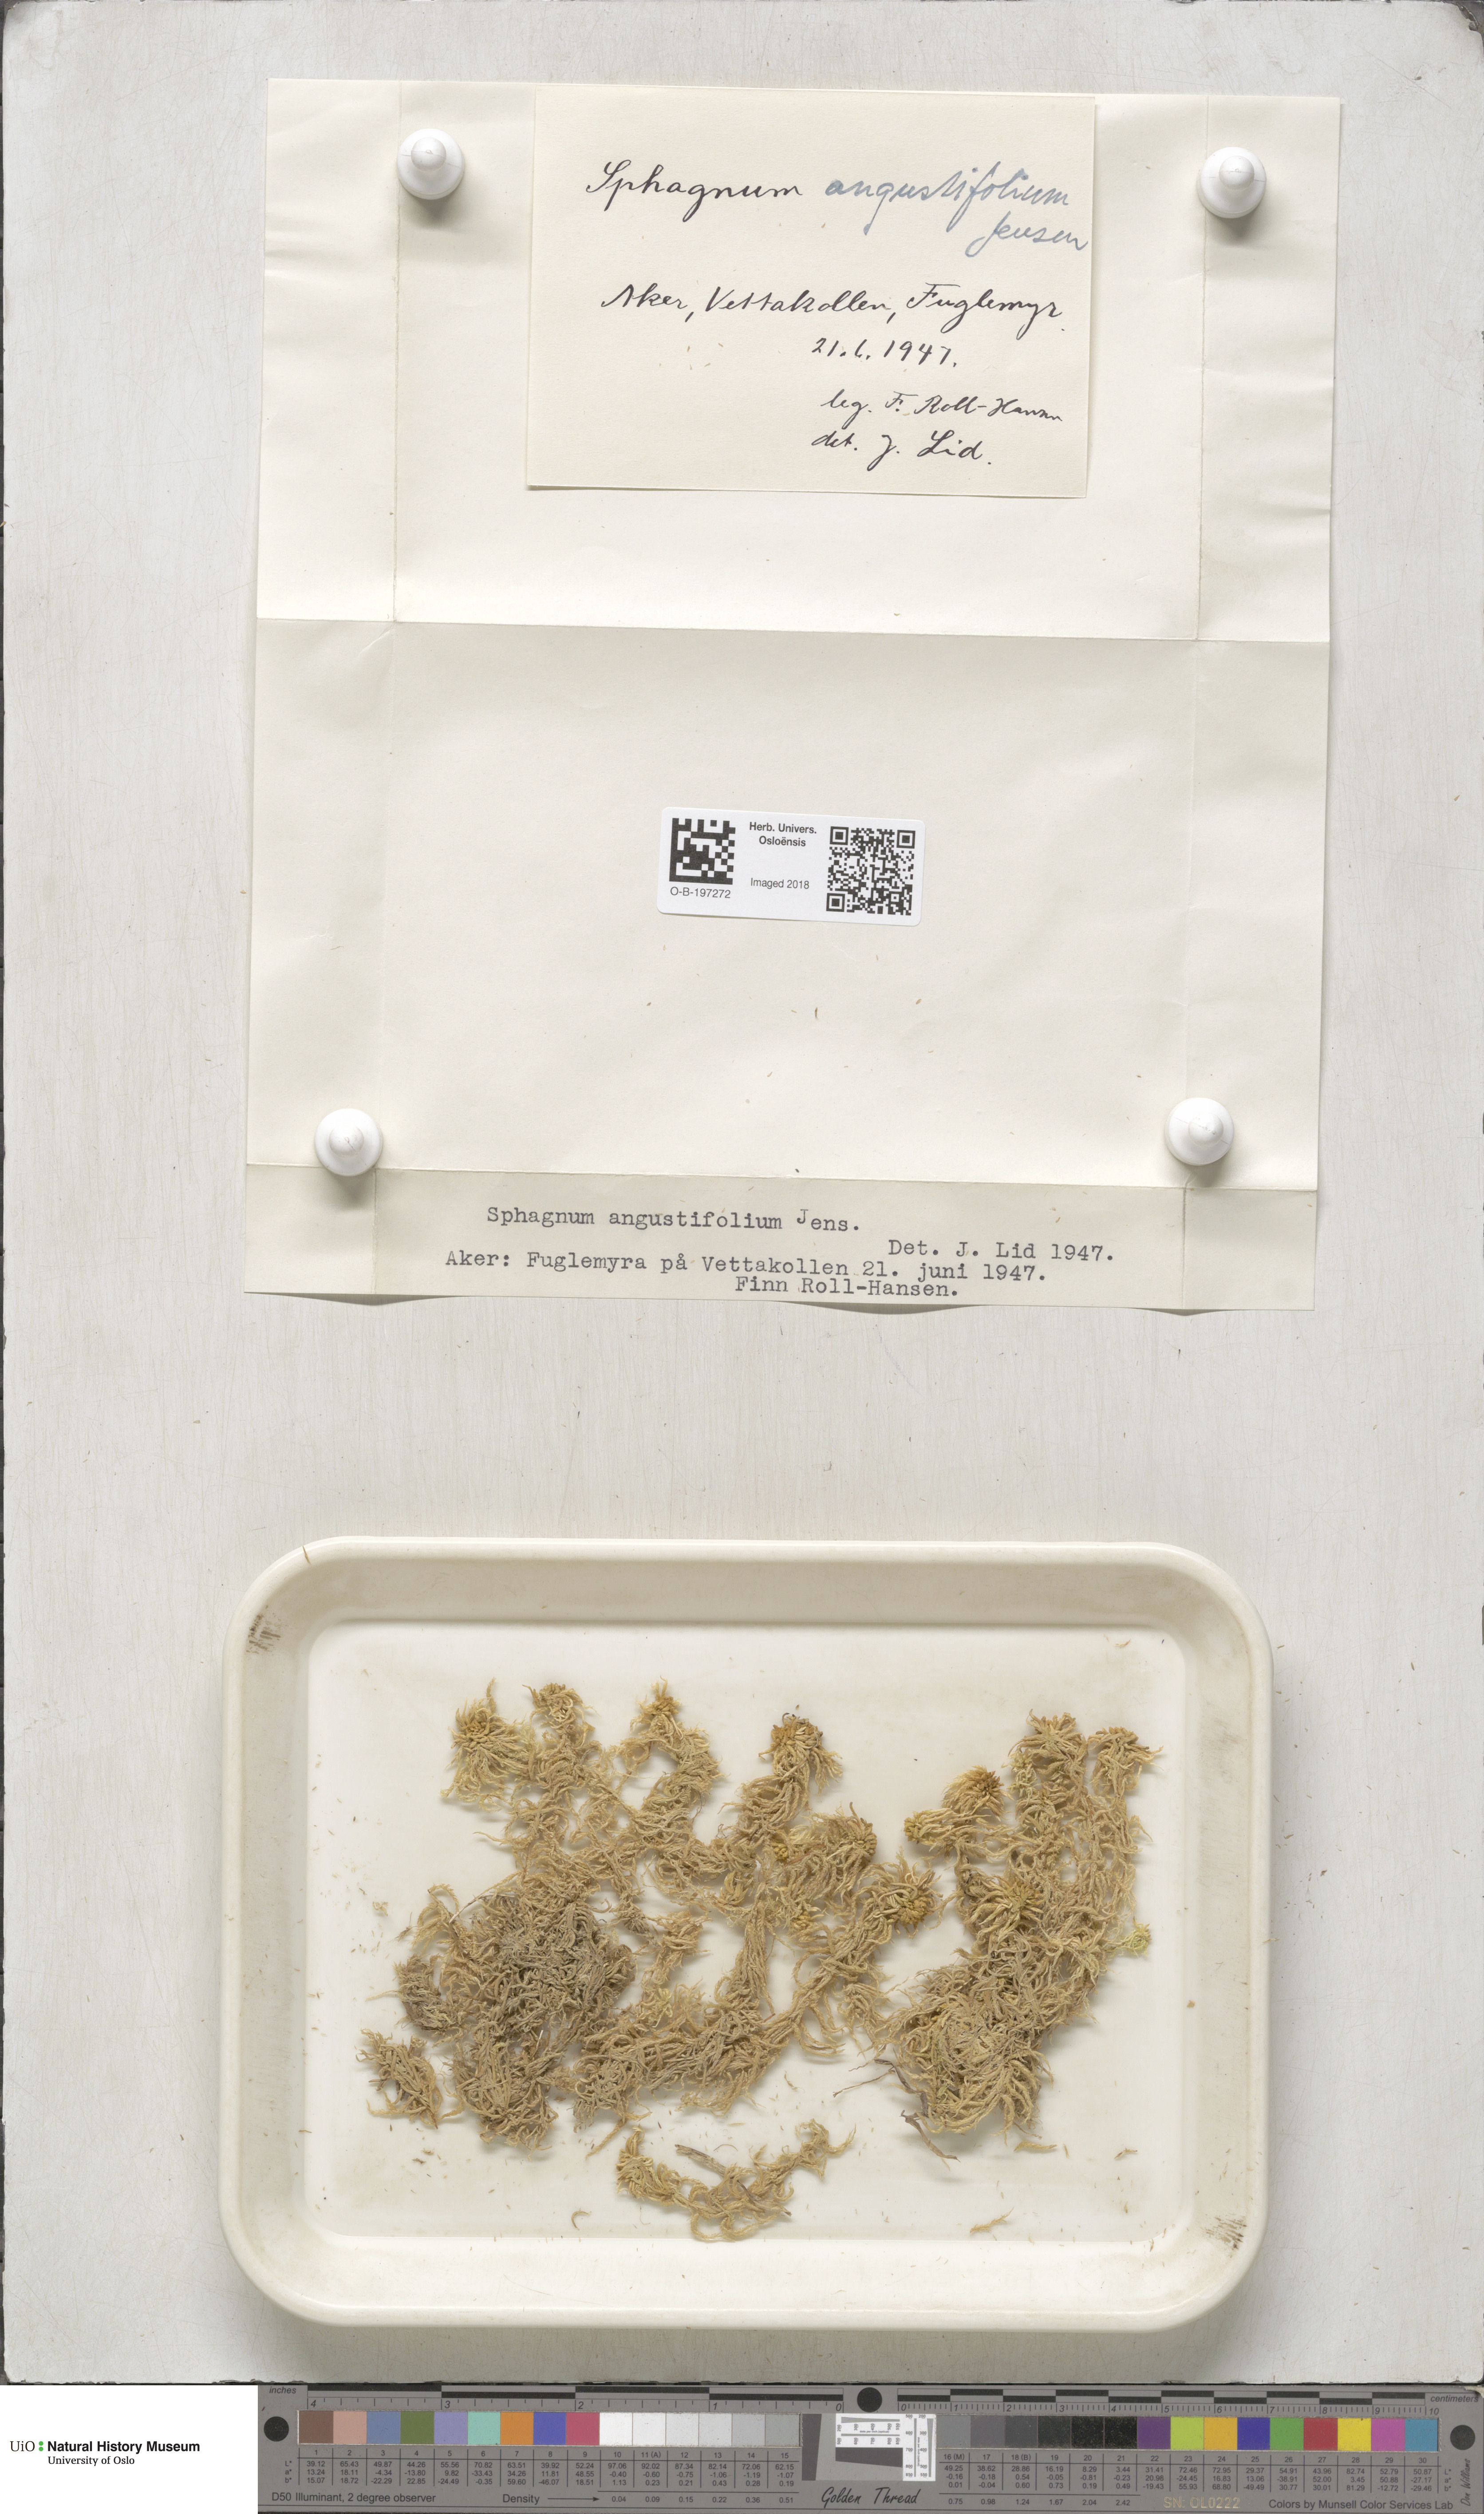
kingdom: Plantae
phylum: Bryophyta
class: Sphagnopsida
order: Sphagnales
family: Sphagnaceae
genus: Sphagnum
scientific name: Sphagnum angustifolium
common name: Narrow-leaved peat moss
